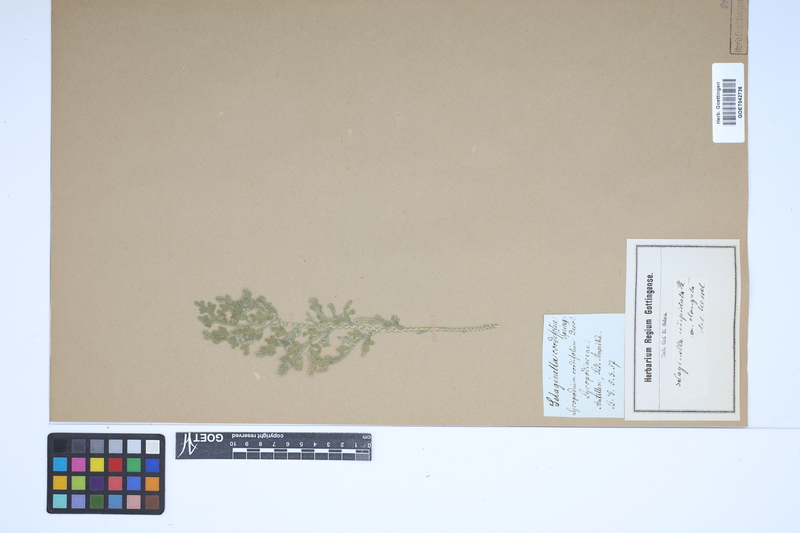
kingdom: Plantae
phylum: Tracheophyta
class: Lycopodiopsida
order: Selaginellales
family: Selaginellaceae
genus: Selaginella
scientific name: Selaginella pallescens
